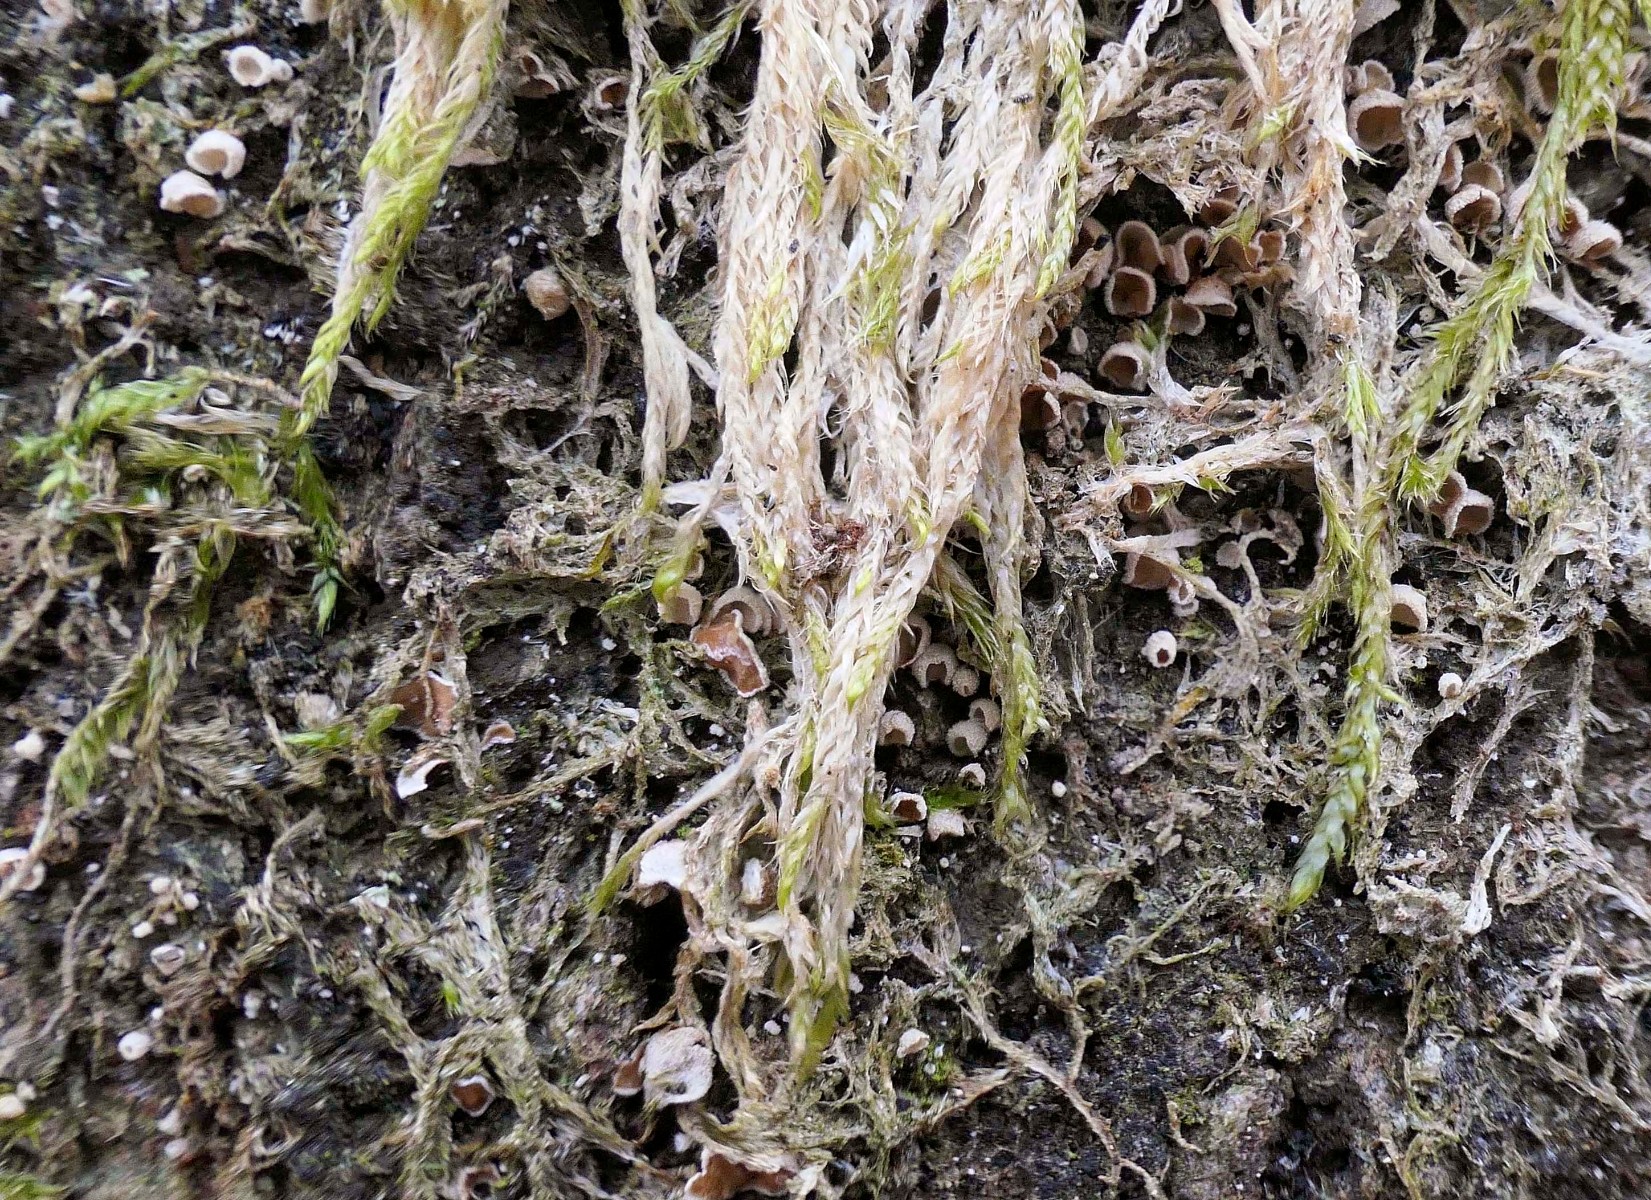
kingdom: Fungi
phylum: Basidiomycota
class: Agaricomycetes
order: Agaricales
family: Chromocyphellaceae
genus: Chromocyphella
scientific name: Chromocyphella muscicola
